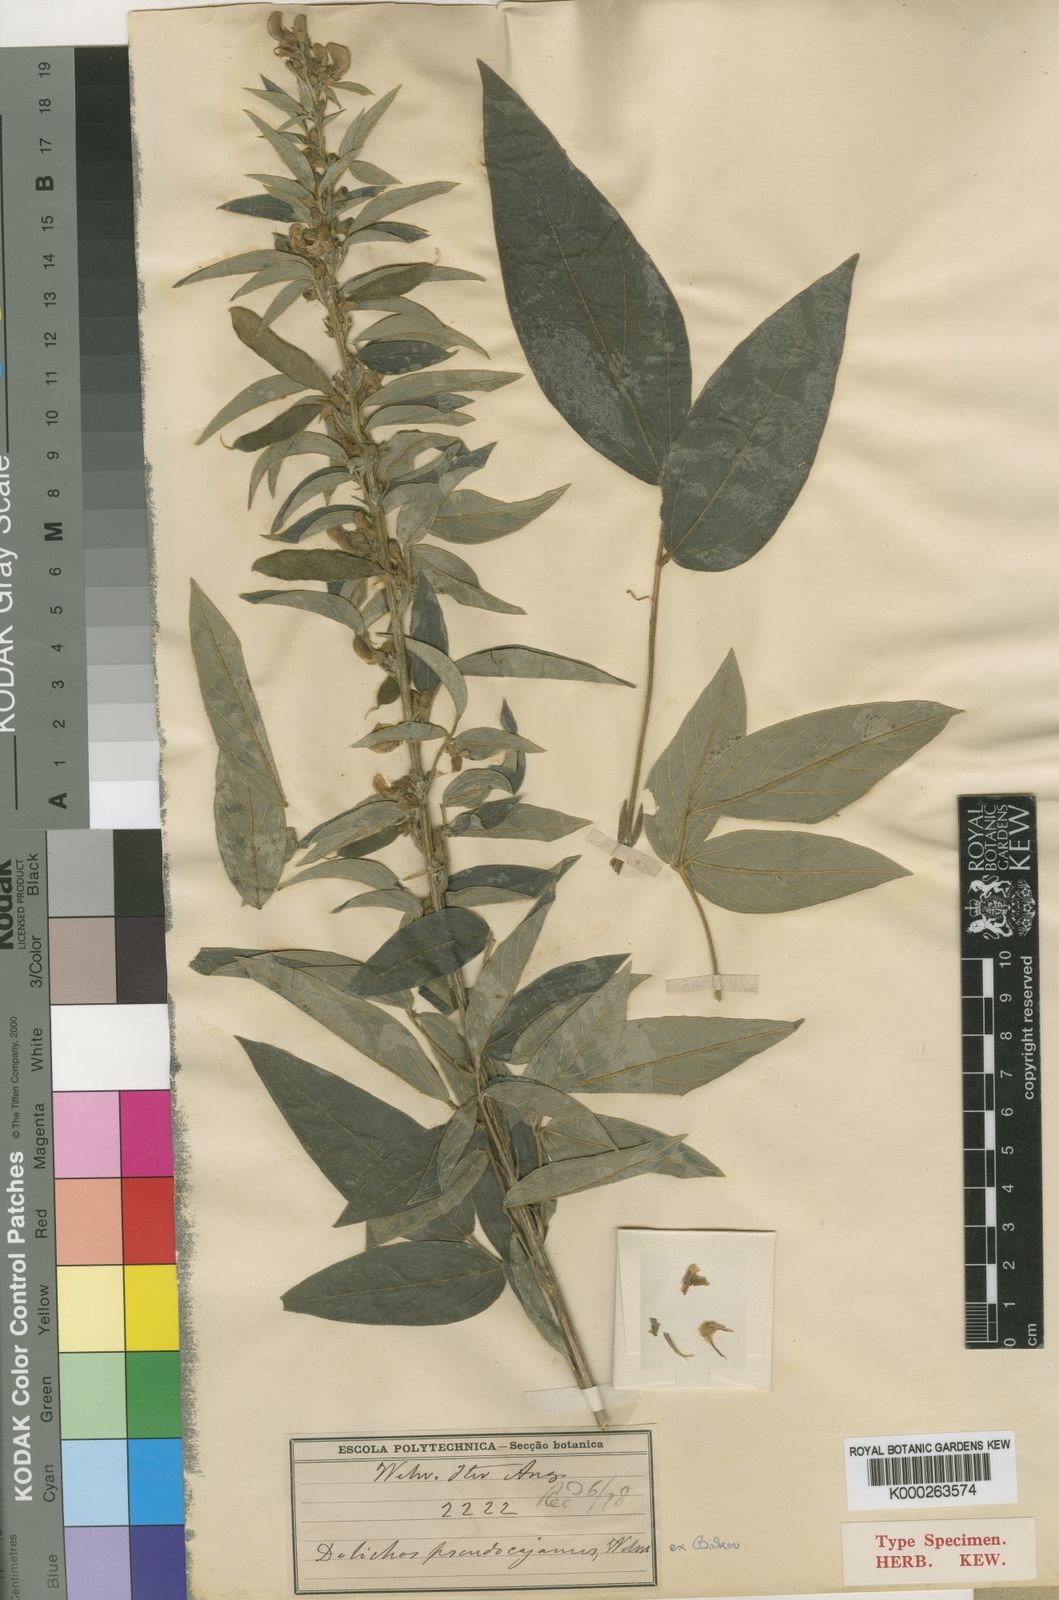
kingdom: Plantae
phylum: Tracheophyta
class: Magnoliopsida
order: Fabales
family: Fabaceae
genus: Dolichos
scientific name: Dolichos pseudocajanus
